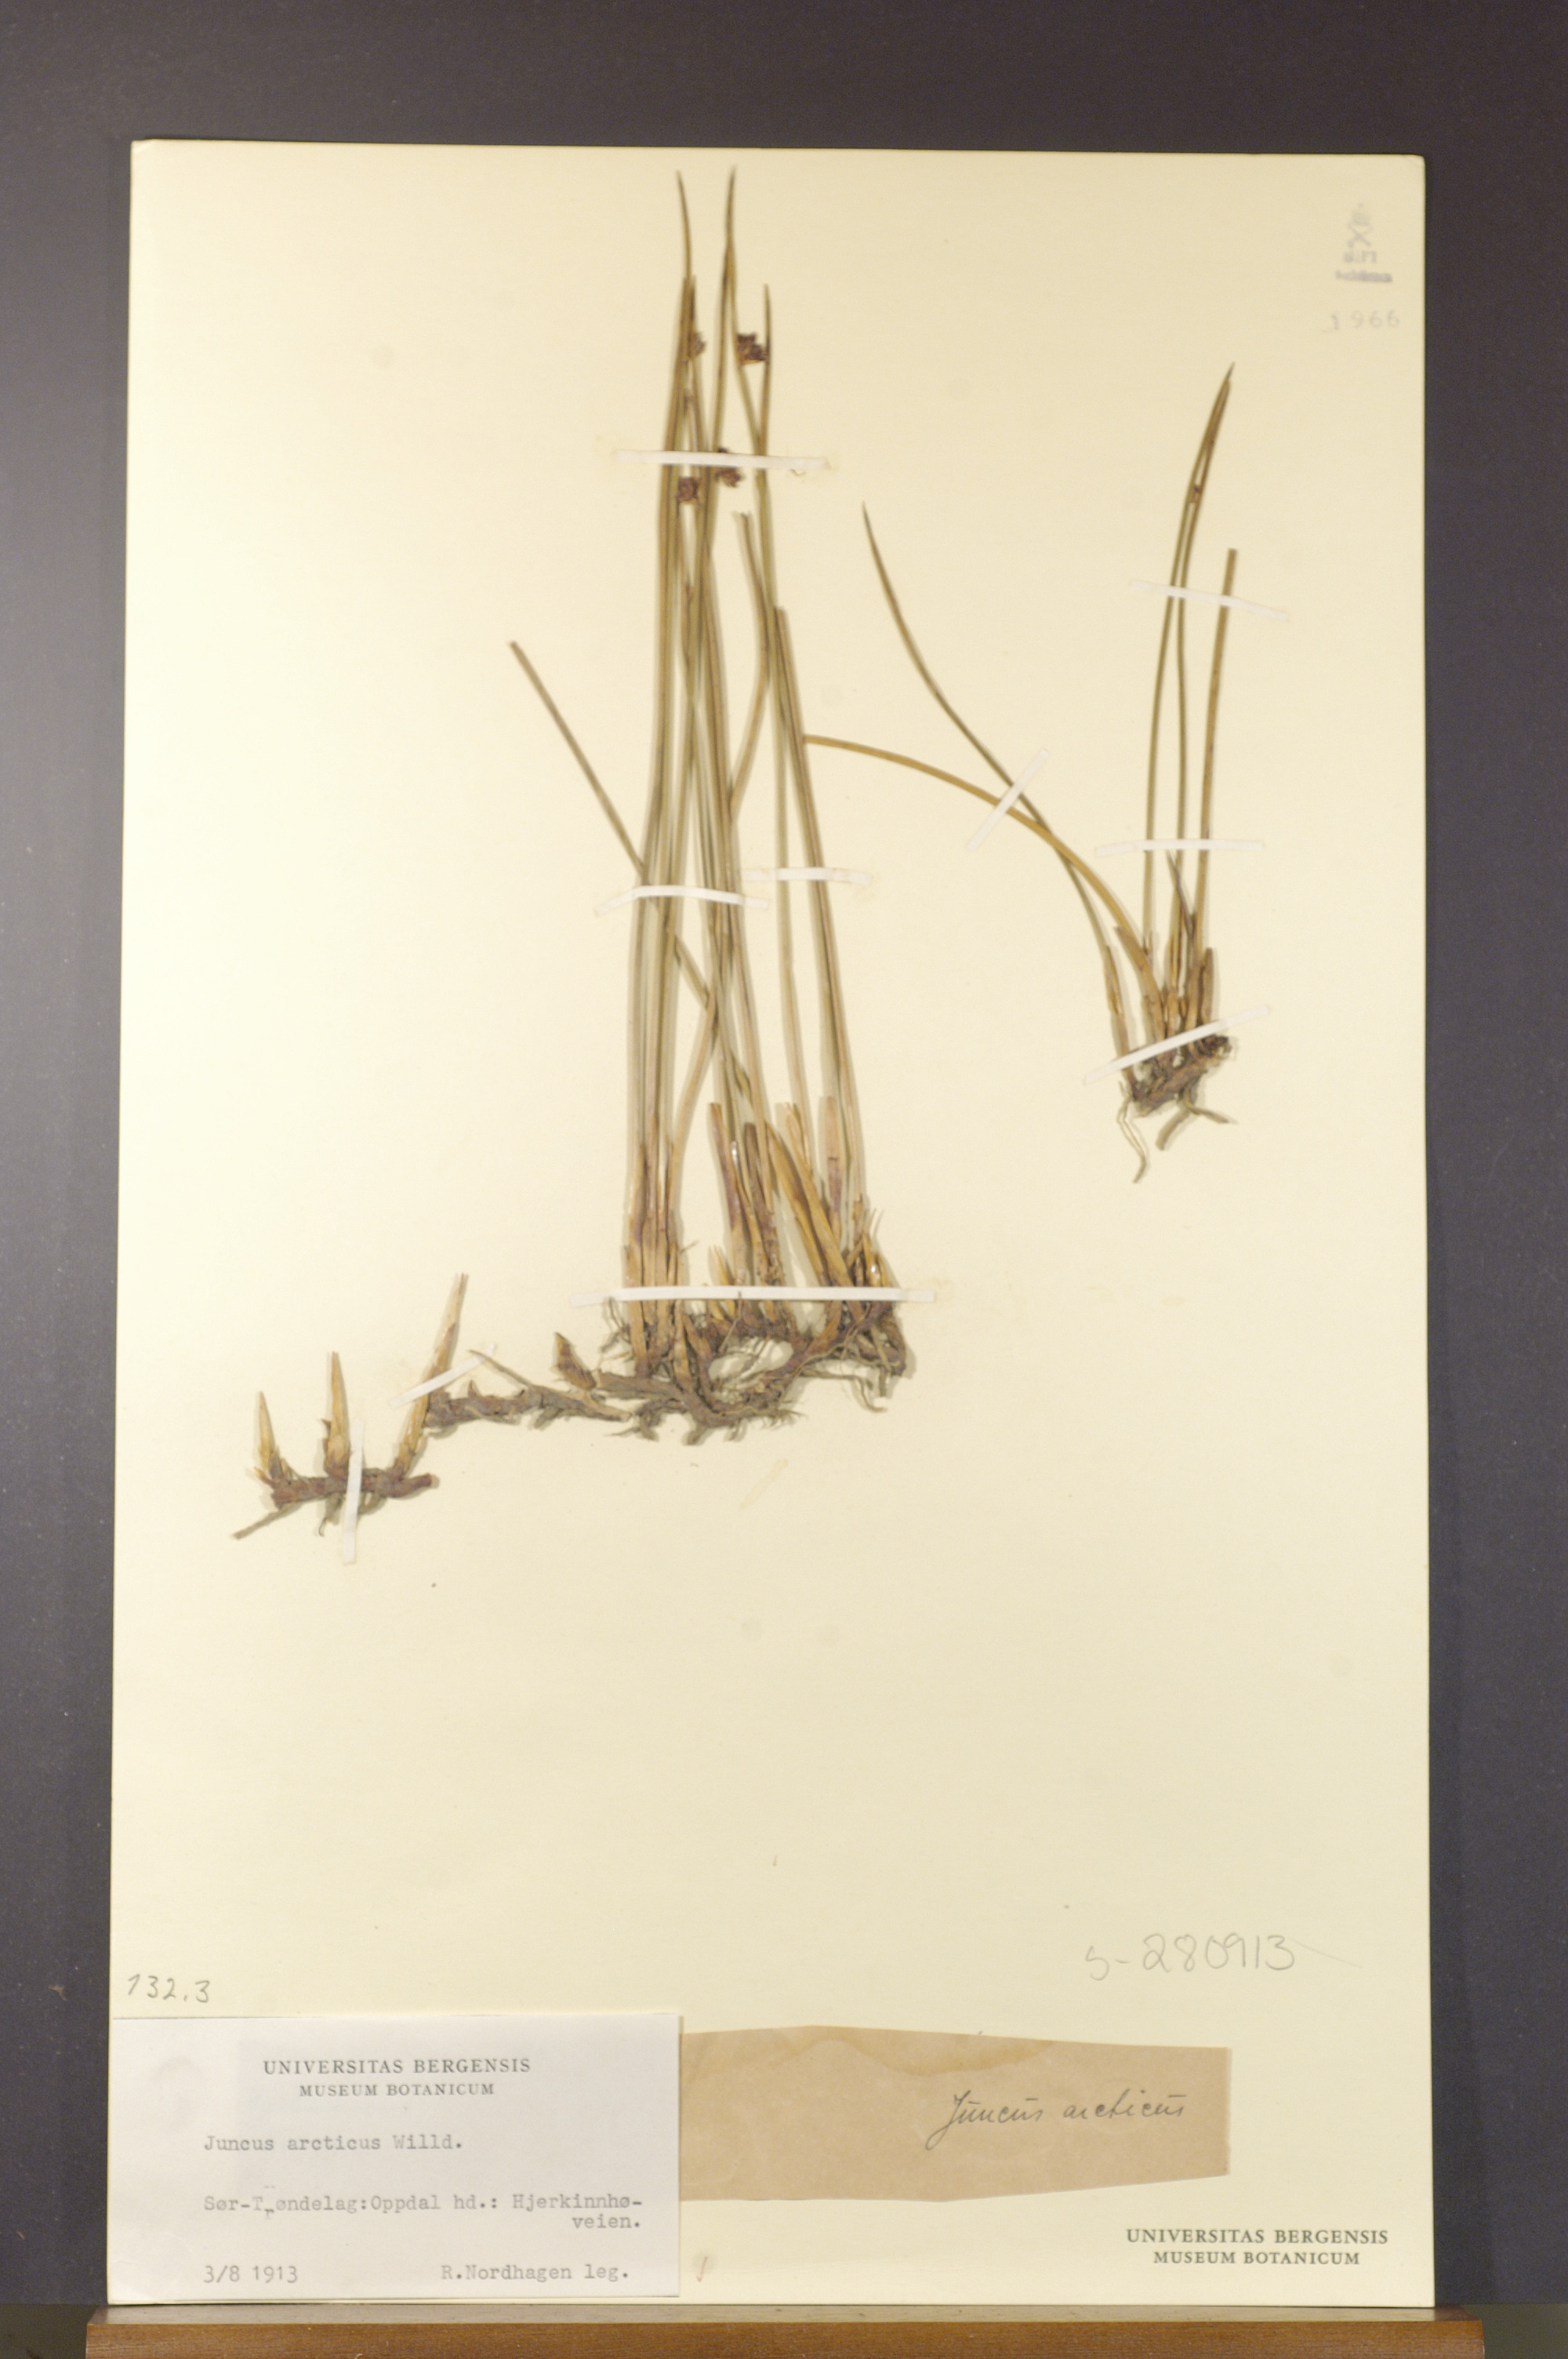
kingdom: Plantae
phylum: Tracheophyta
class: Liliopsida
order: Poales
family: Juncaceae
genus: Juncus
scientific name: Juncus arcticus
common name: Arctic rush
